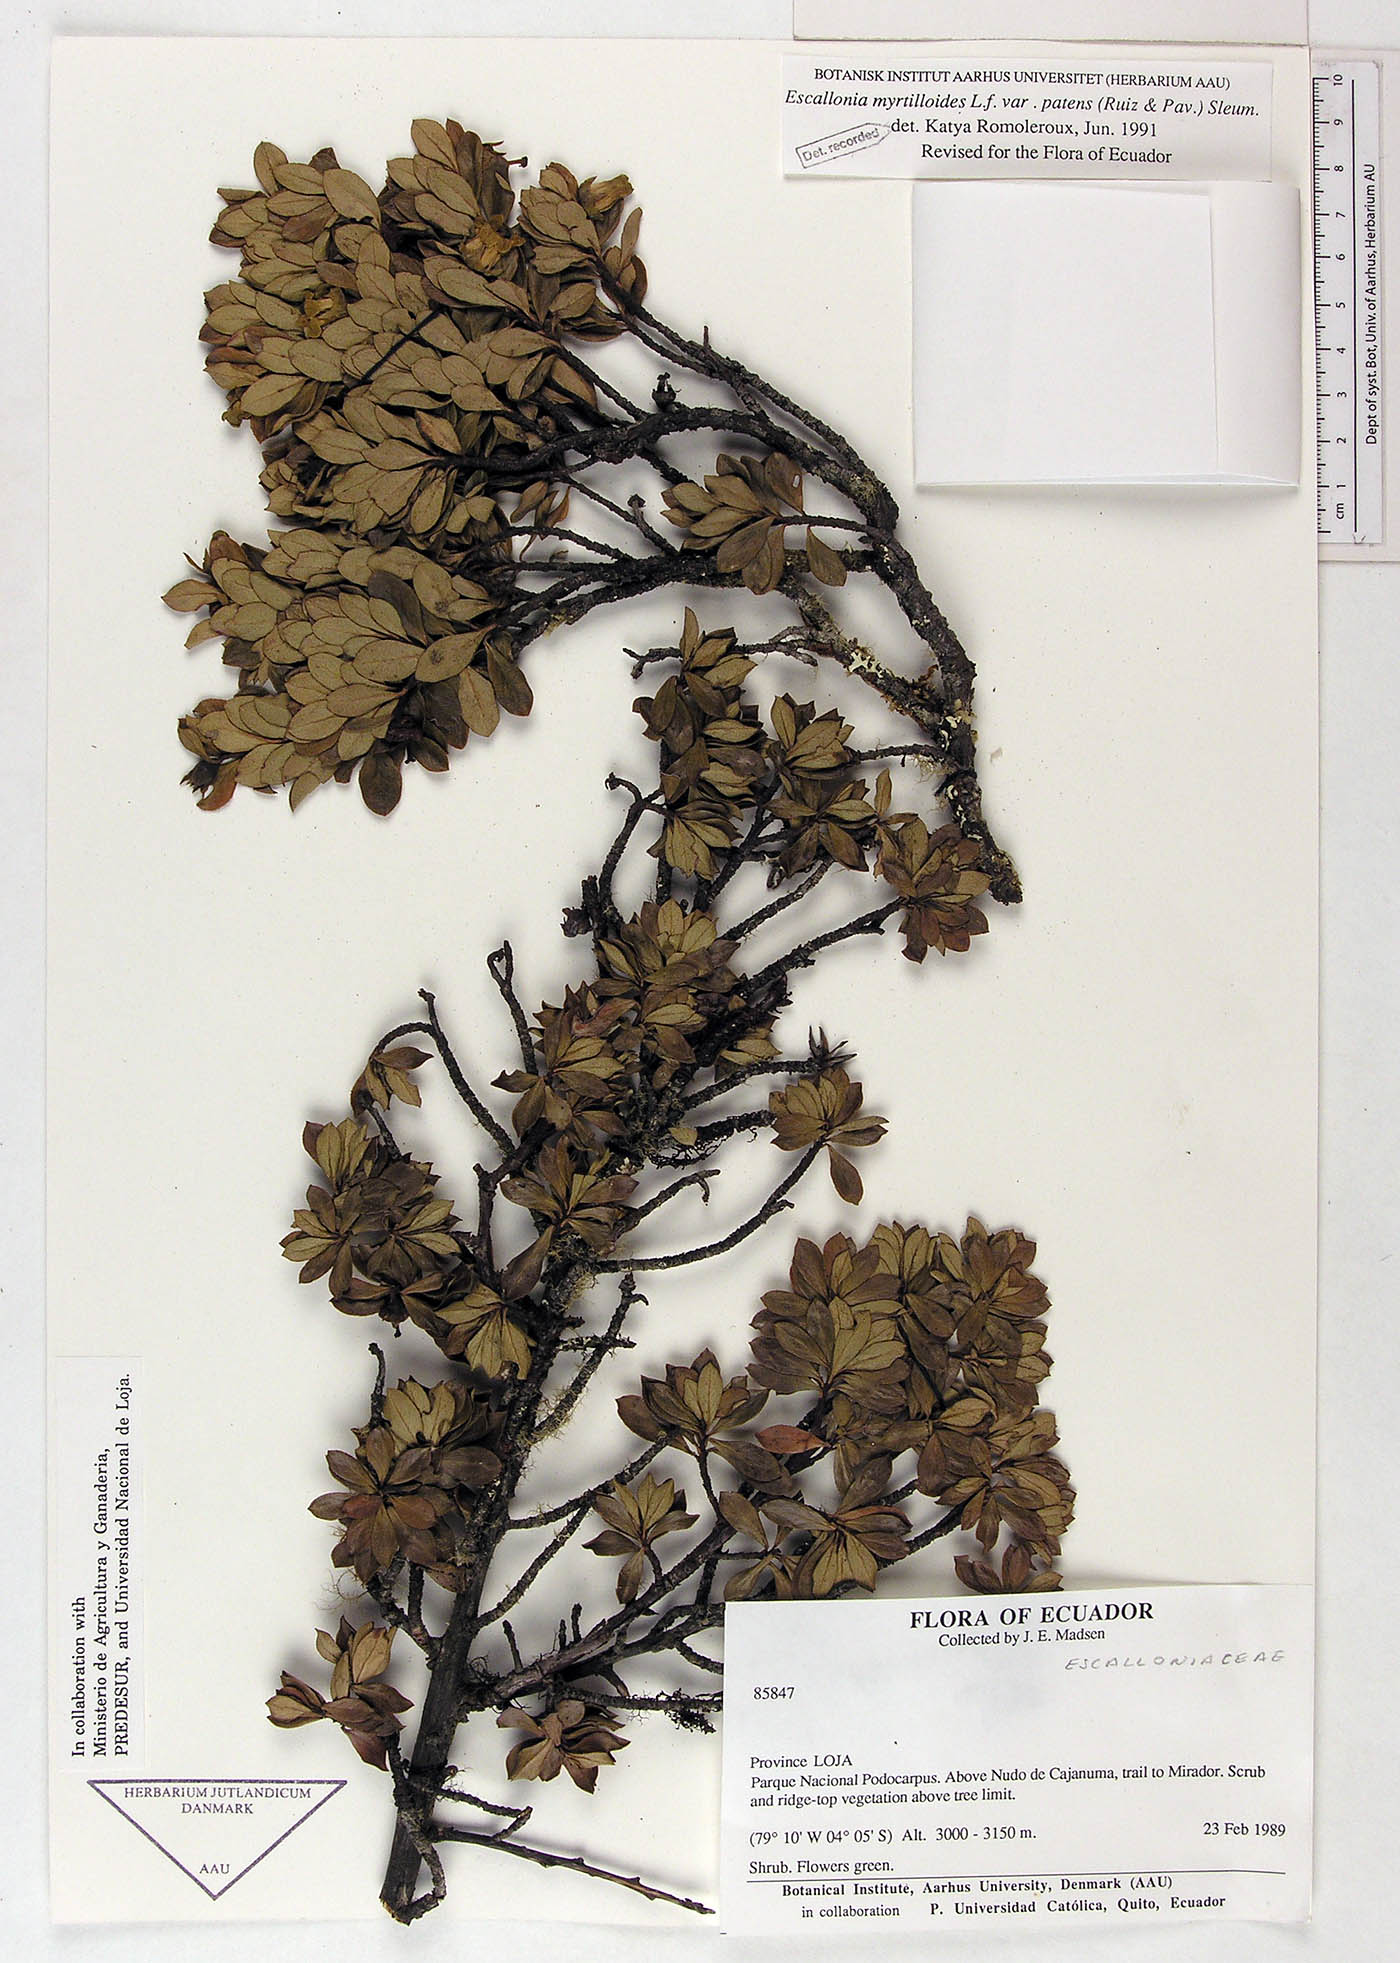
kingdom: Plantae
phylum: Tracheophyta
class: Magnoliopsida
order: Escalloniales
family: Escalloniaceae
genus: Escallonia
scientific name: Escallonia myrtilloides
